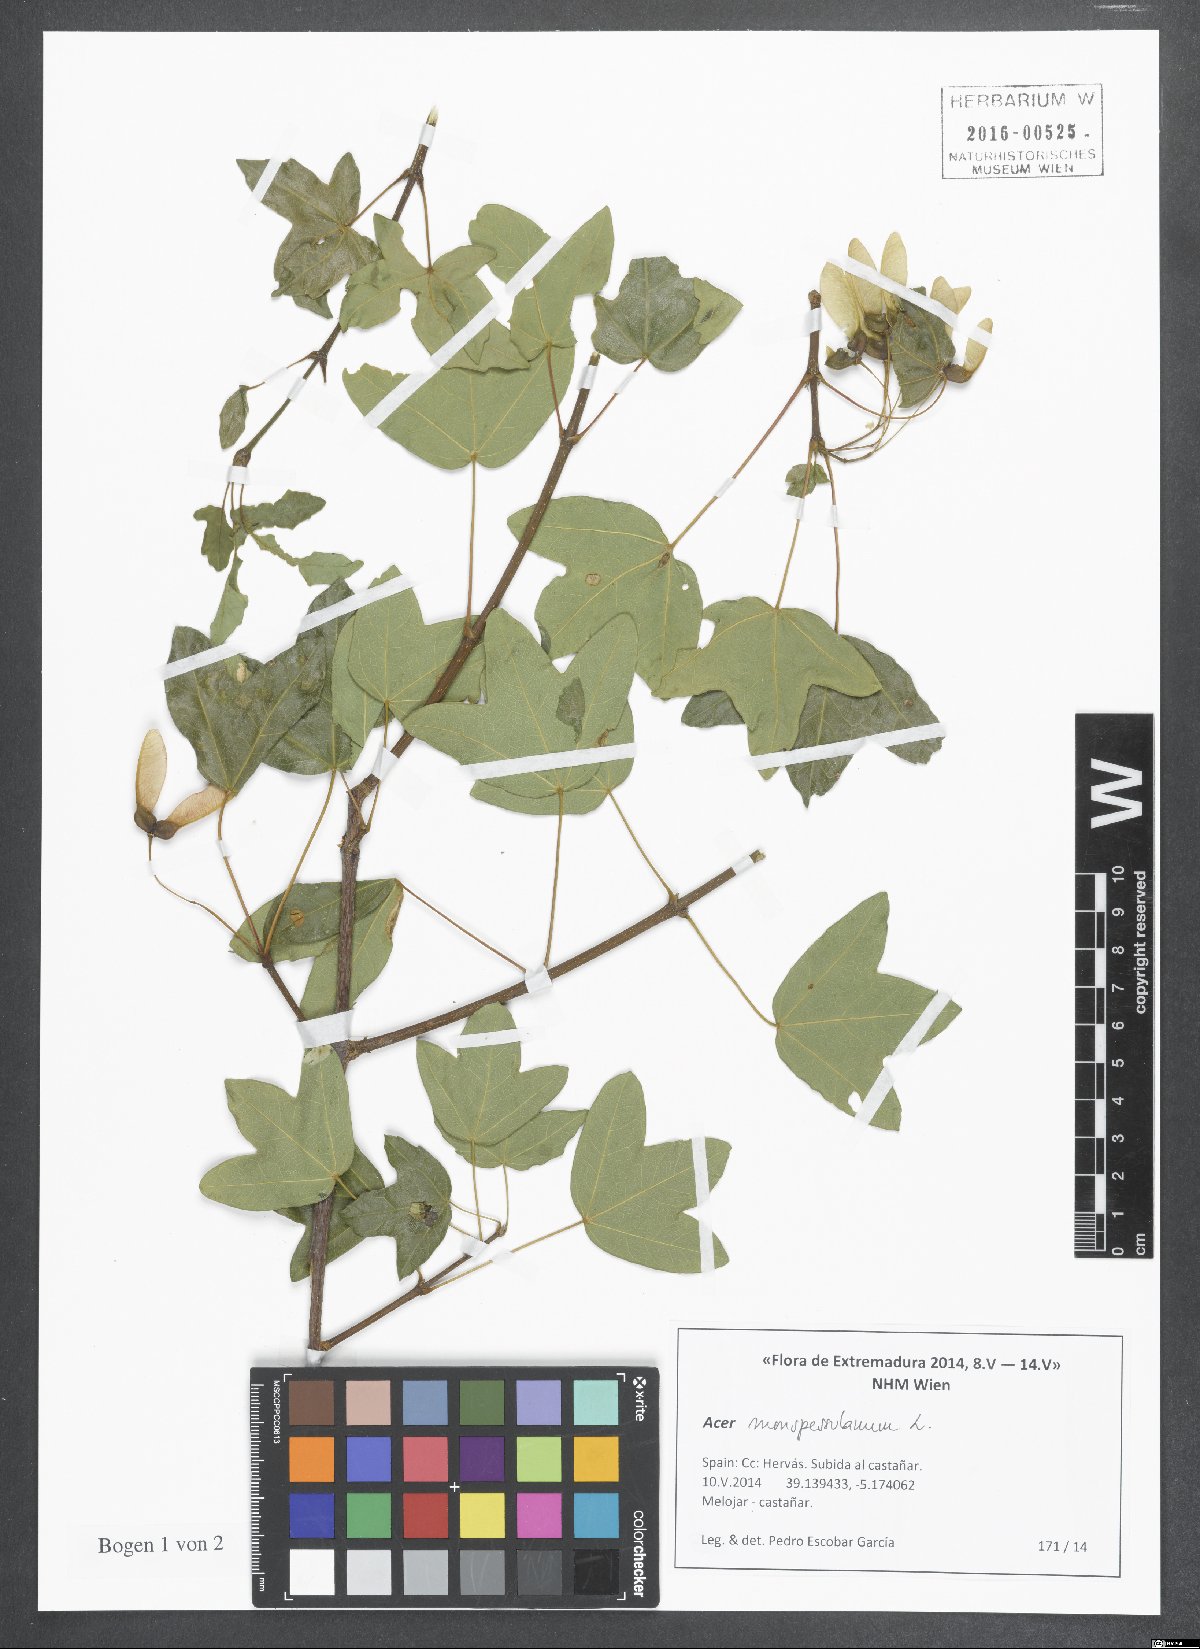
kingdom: Plantae
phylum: Tracheophyta
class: Magnoliopsida
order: Sapindales
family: Sapindaceae
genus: Acer
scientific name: Acer monspessulanum
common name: Montpellier maple
